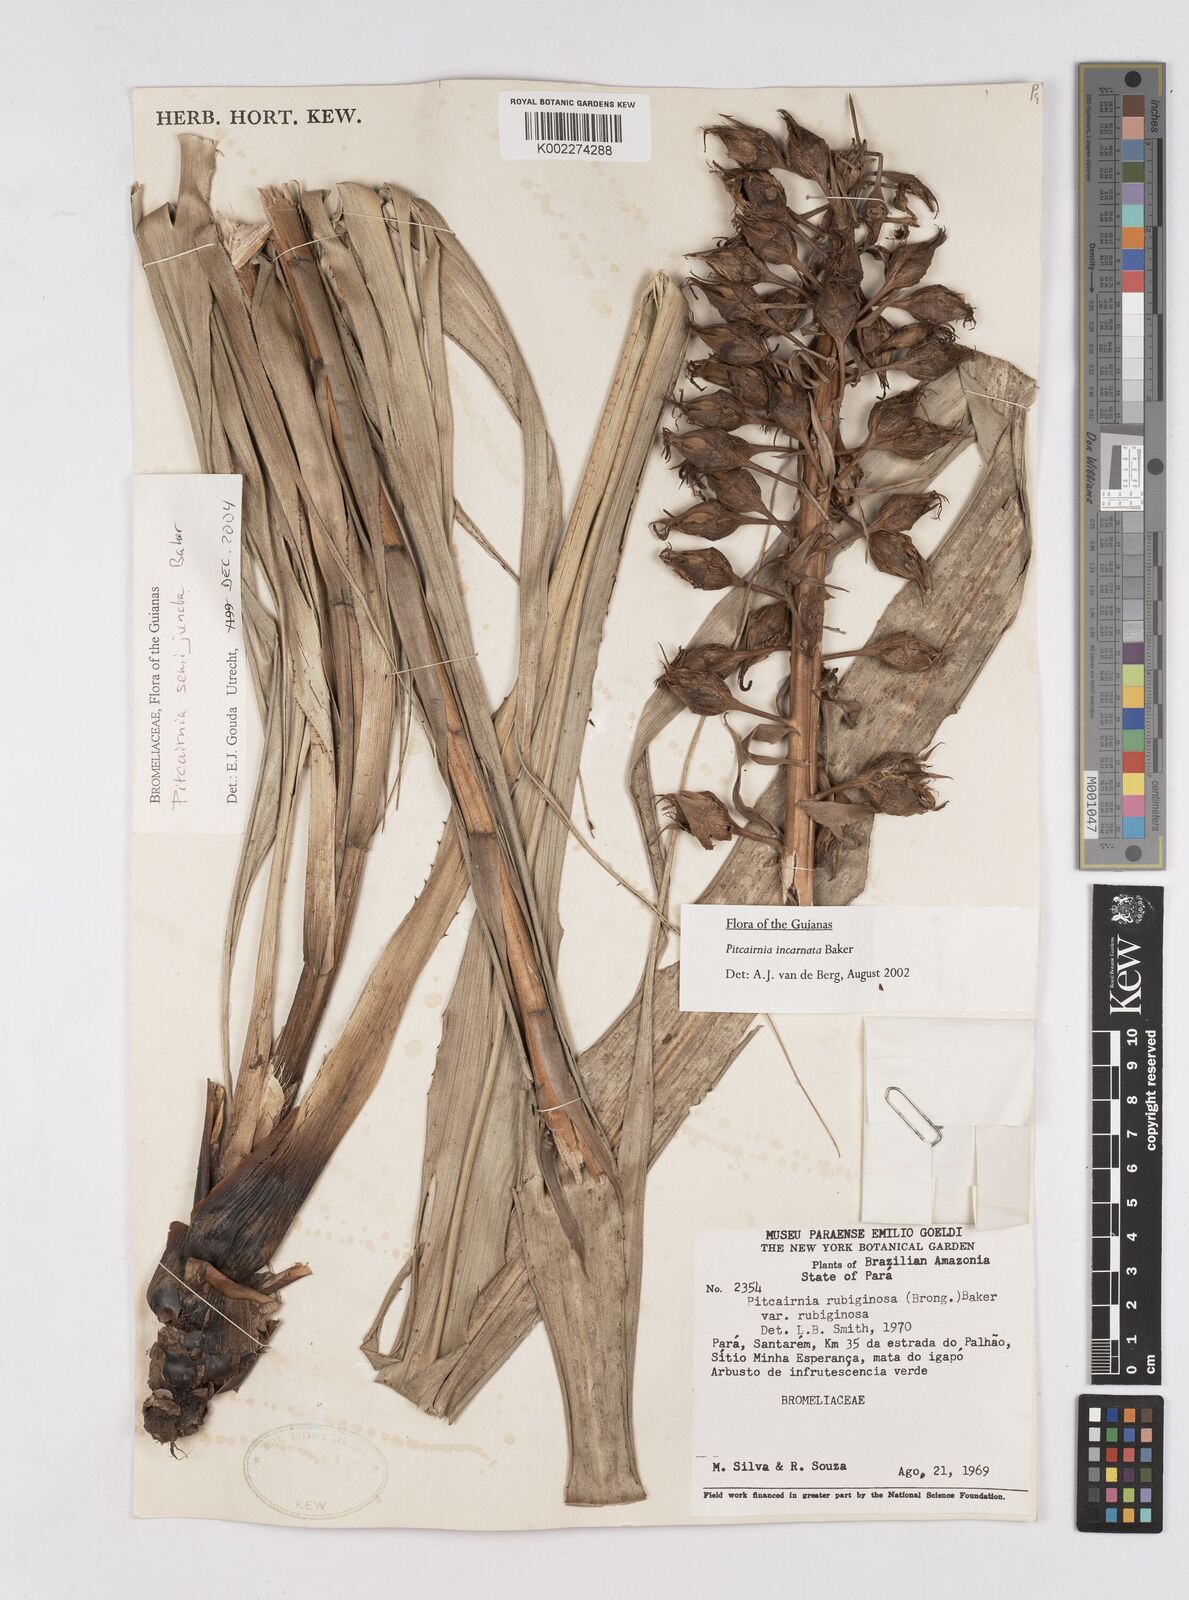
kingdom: Plantae
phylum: Tracheophyta
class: Liliopsida
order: Poales
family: Bromeliaceae
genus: Pitcairnia
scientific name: Pitcairnia semijuncta
